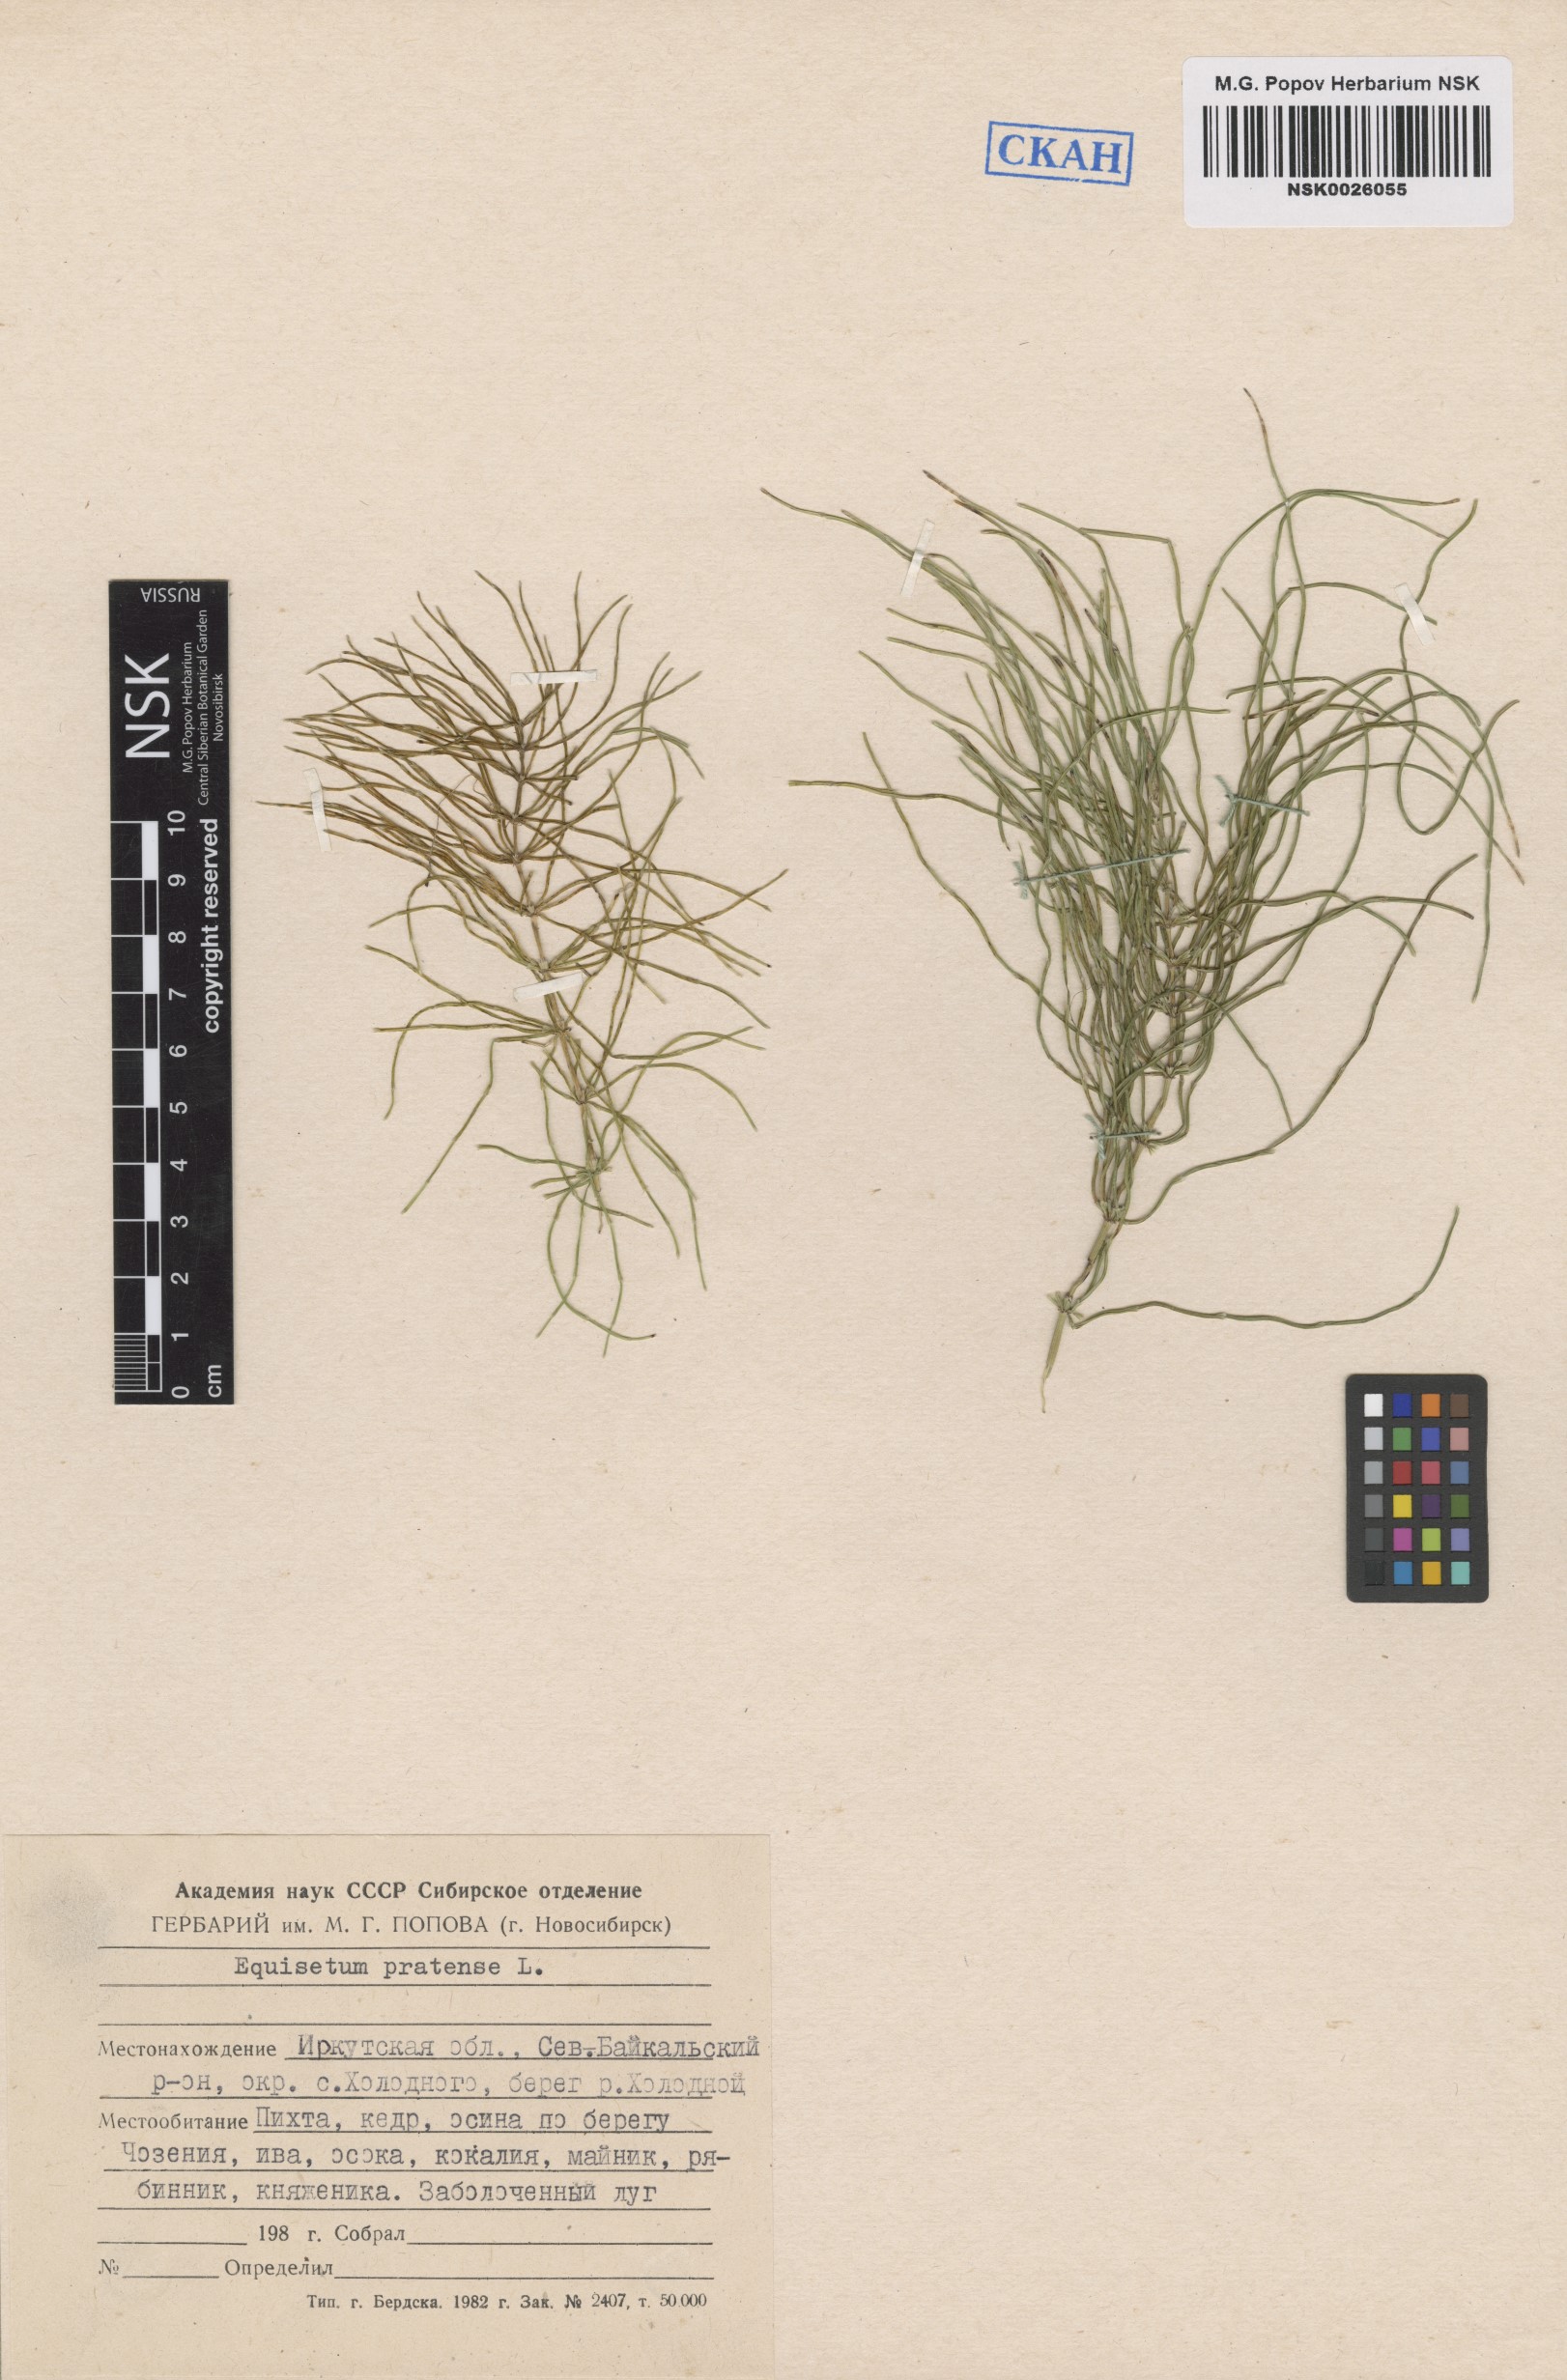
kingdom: Plantae
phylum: Tracheophyta
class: Polypodiopsida
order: Equisetales
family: Equisetaceae
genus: Equisetum
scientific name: Equisetum pratense
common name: Meadow horsetail
